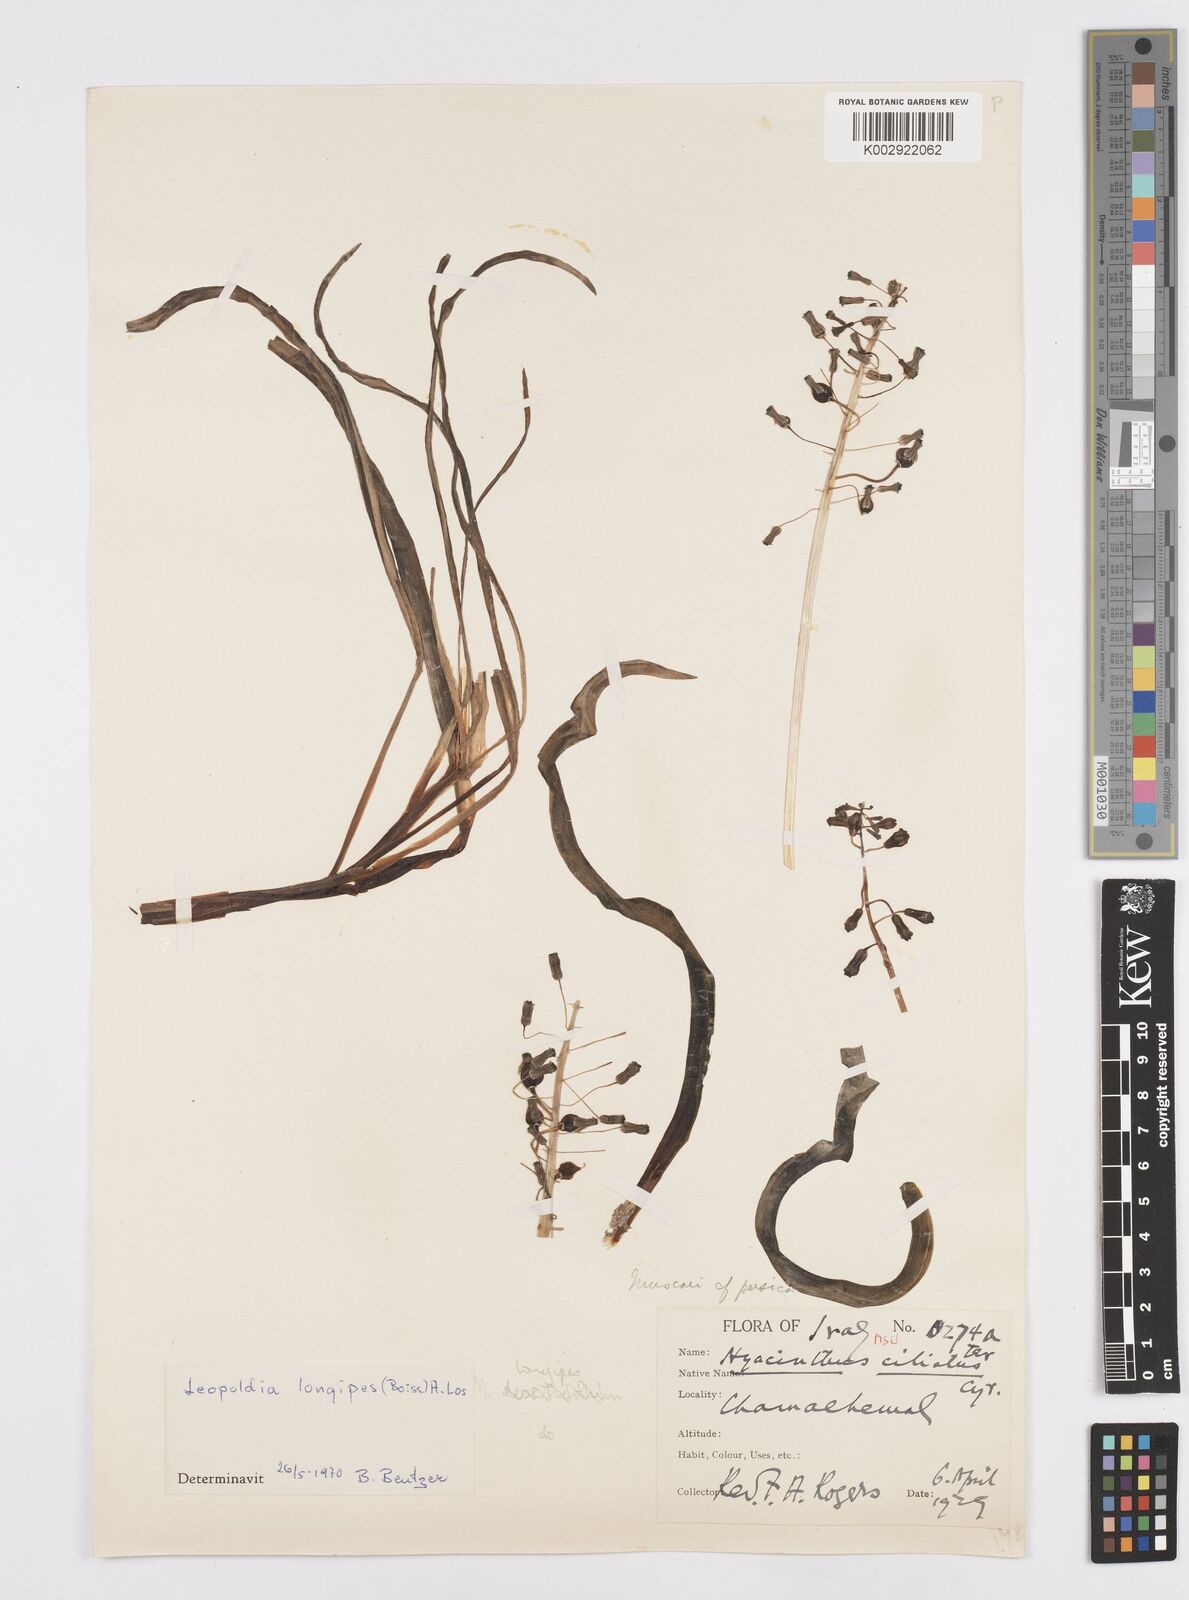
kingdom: Animalia
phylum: Mollusca
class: Cephalopoda
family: Neocomitidae
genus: Leopoldia
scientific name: Leopoldia
